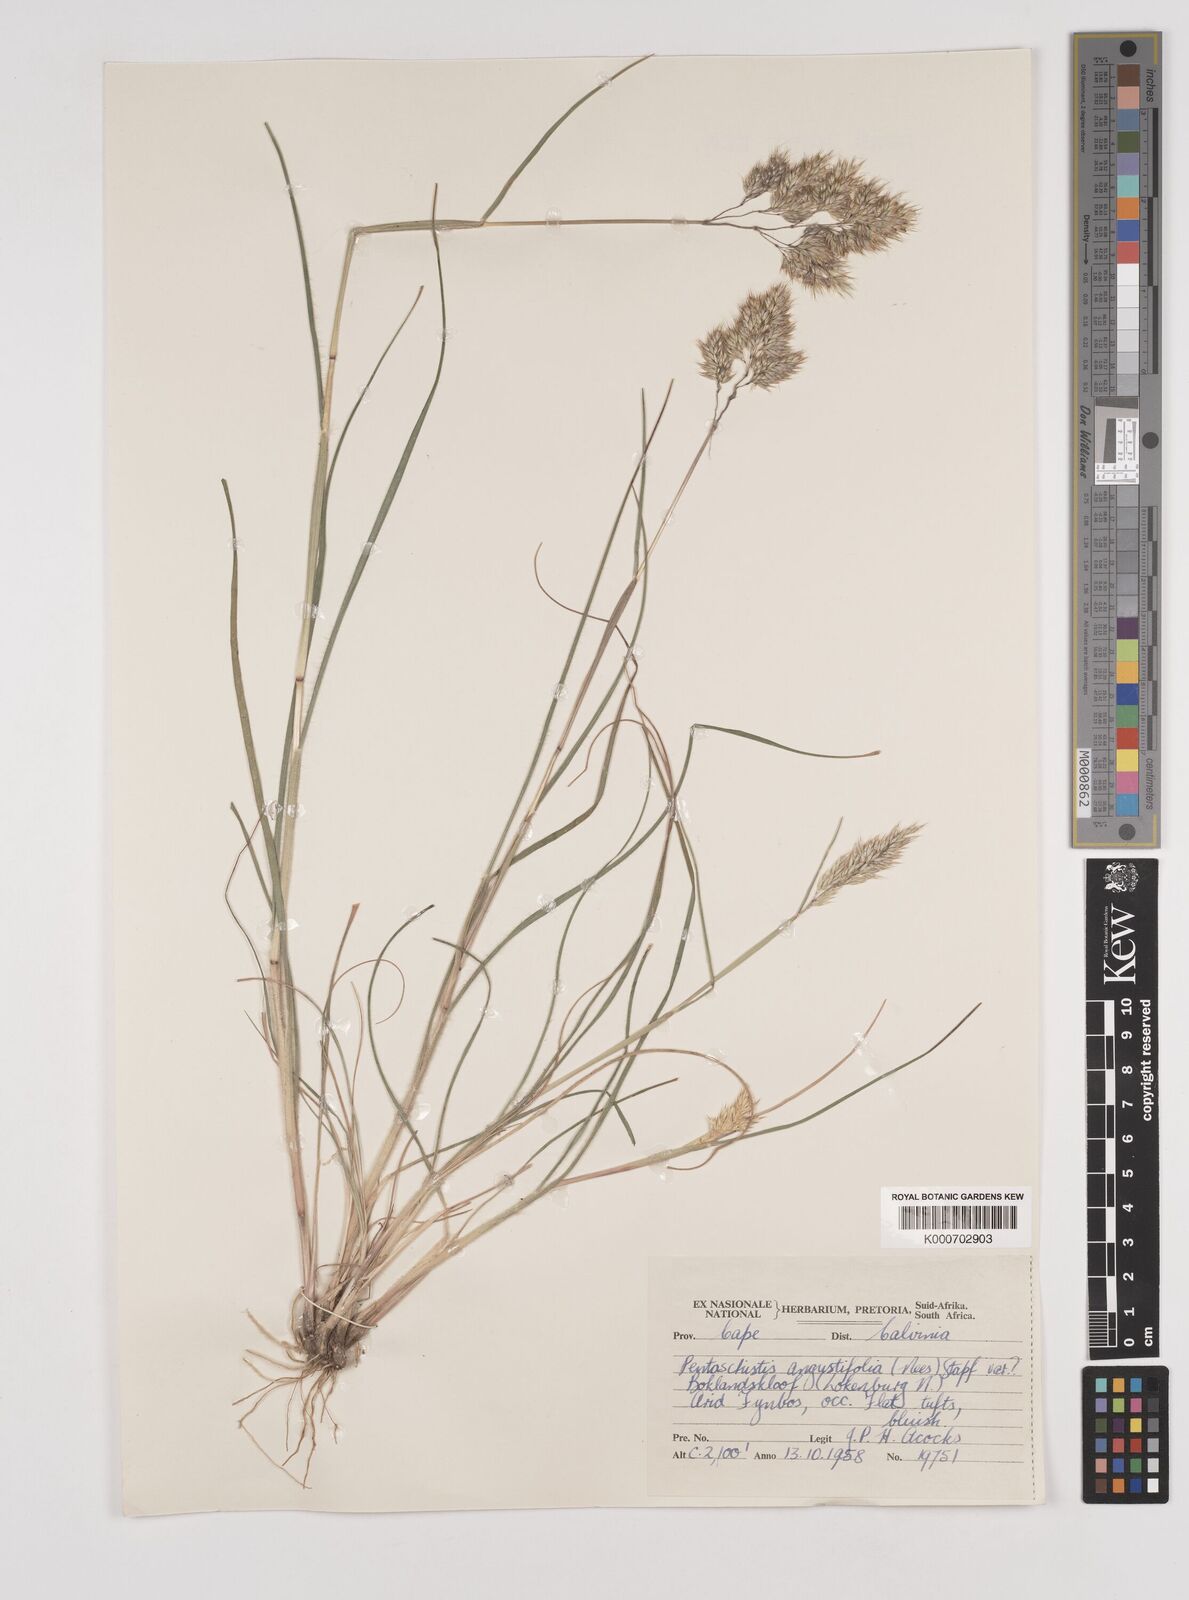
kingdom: Plantae
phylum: Tracheophyta
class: Liliopsida
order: Poales
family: Poaceae
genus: Pentameris
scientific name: Pentameris barbata
